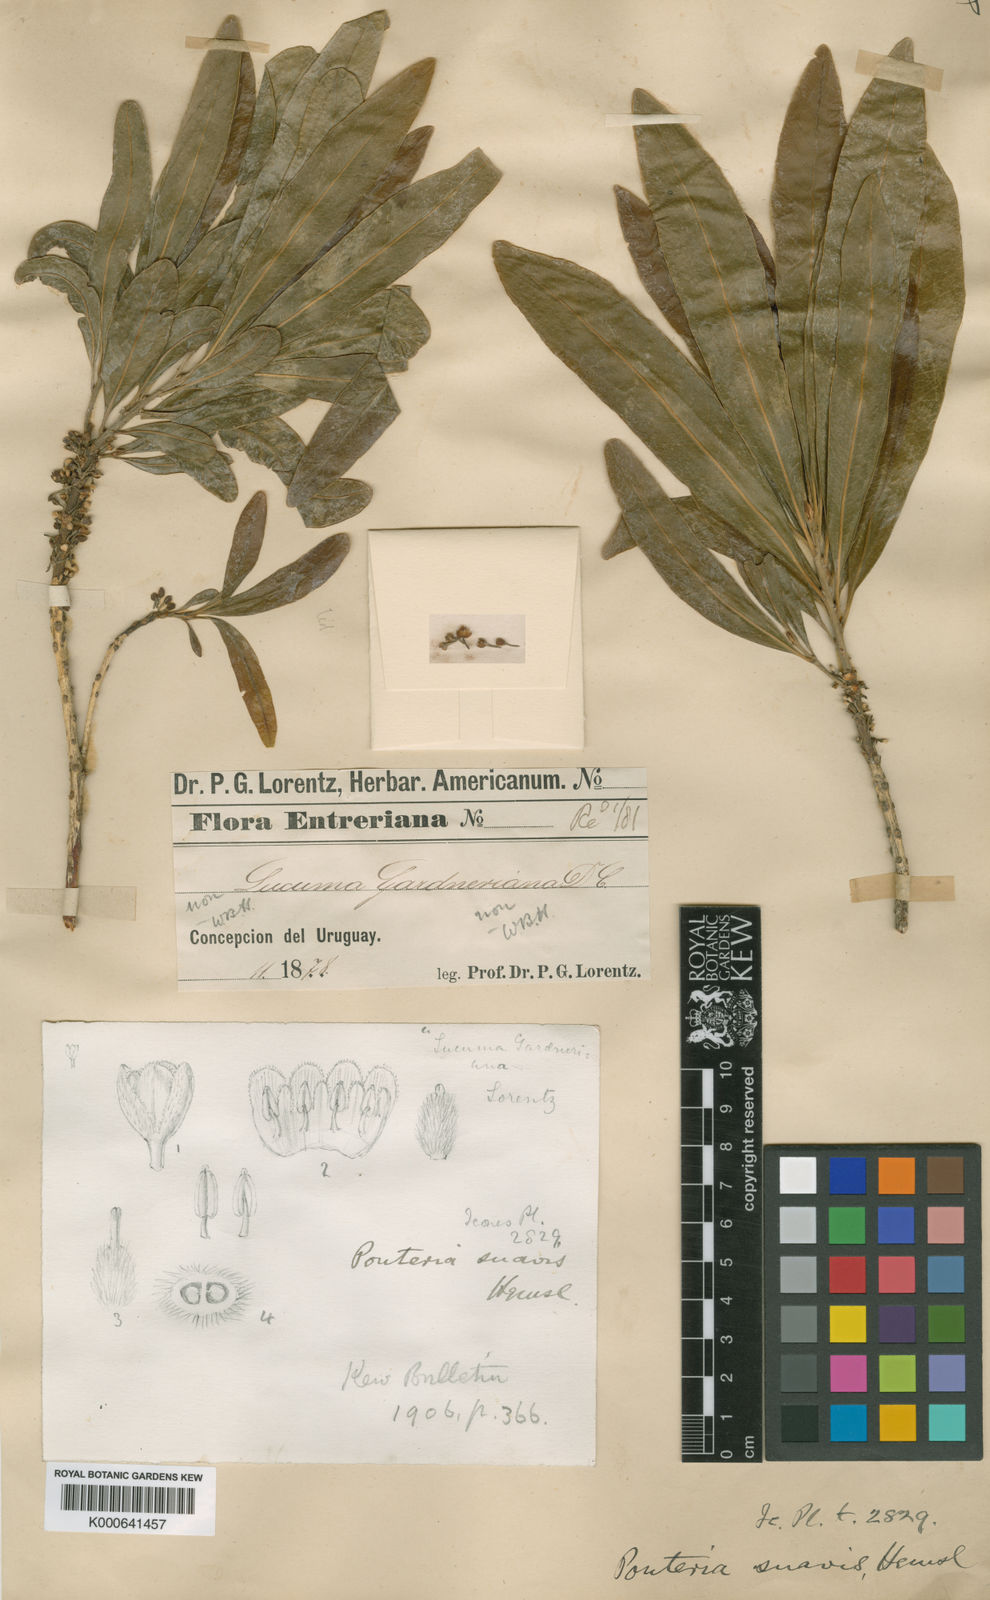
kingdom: Plantae
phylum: Tracheophyta
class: Magnoliopsida
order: Ericales
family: Sapotaceae
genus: Pouteria
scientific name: Pouteria gardneriana
